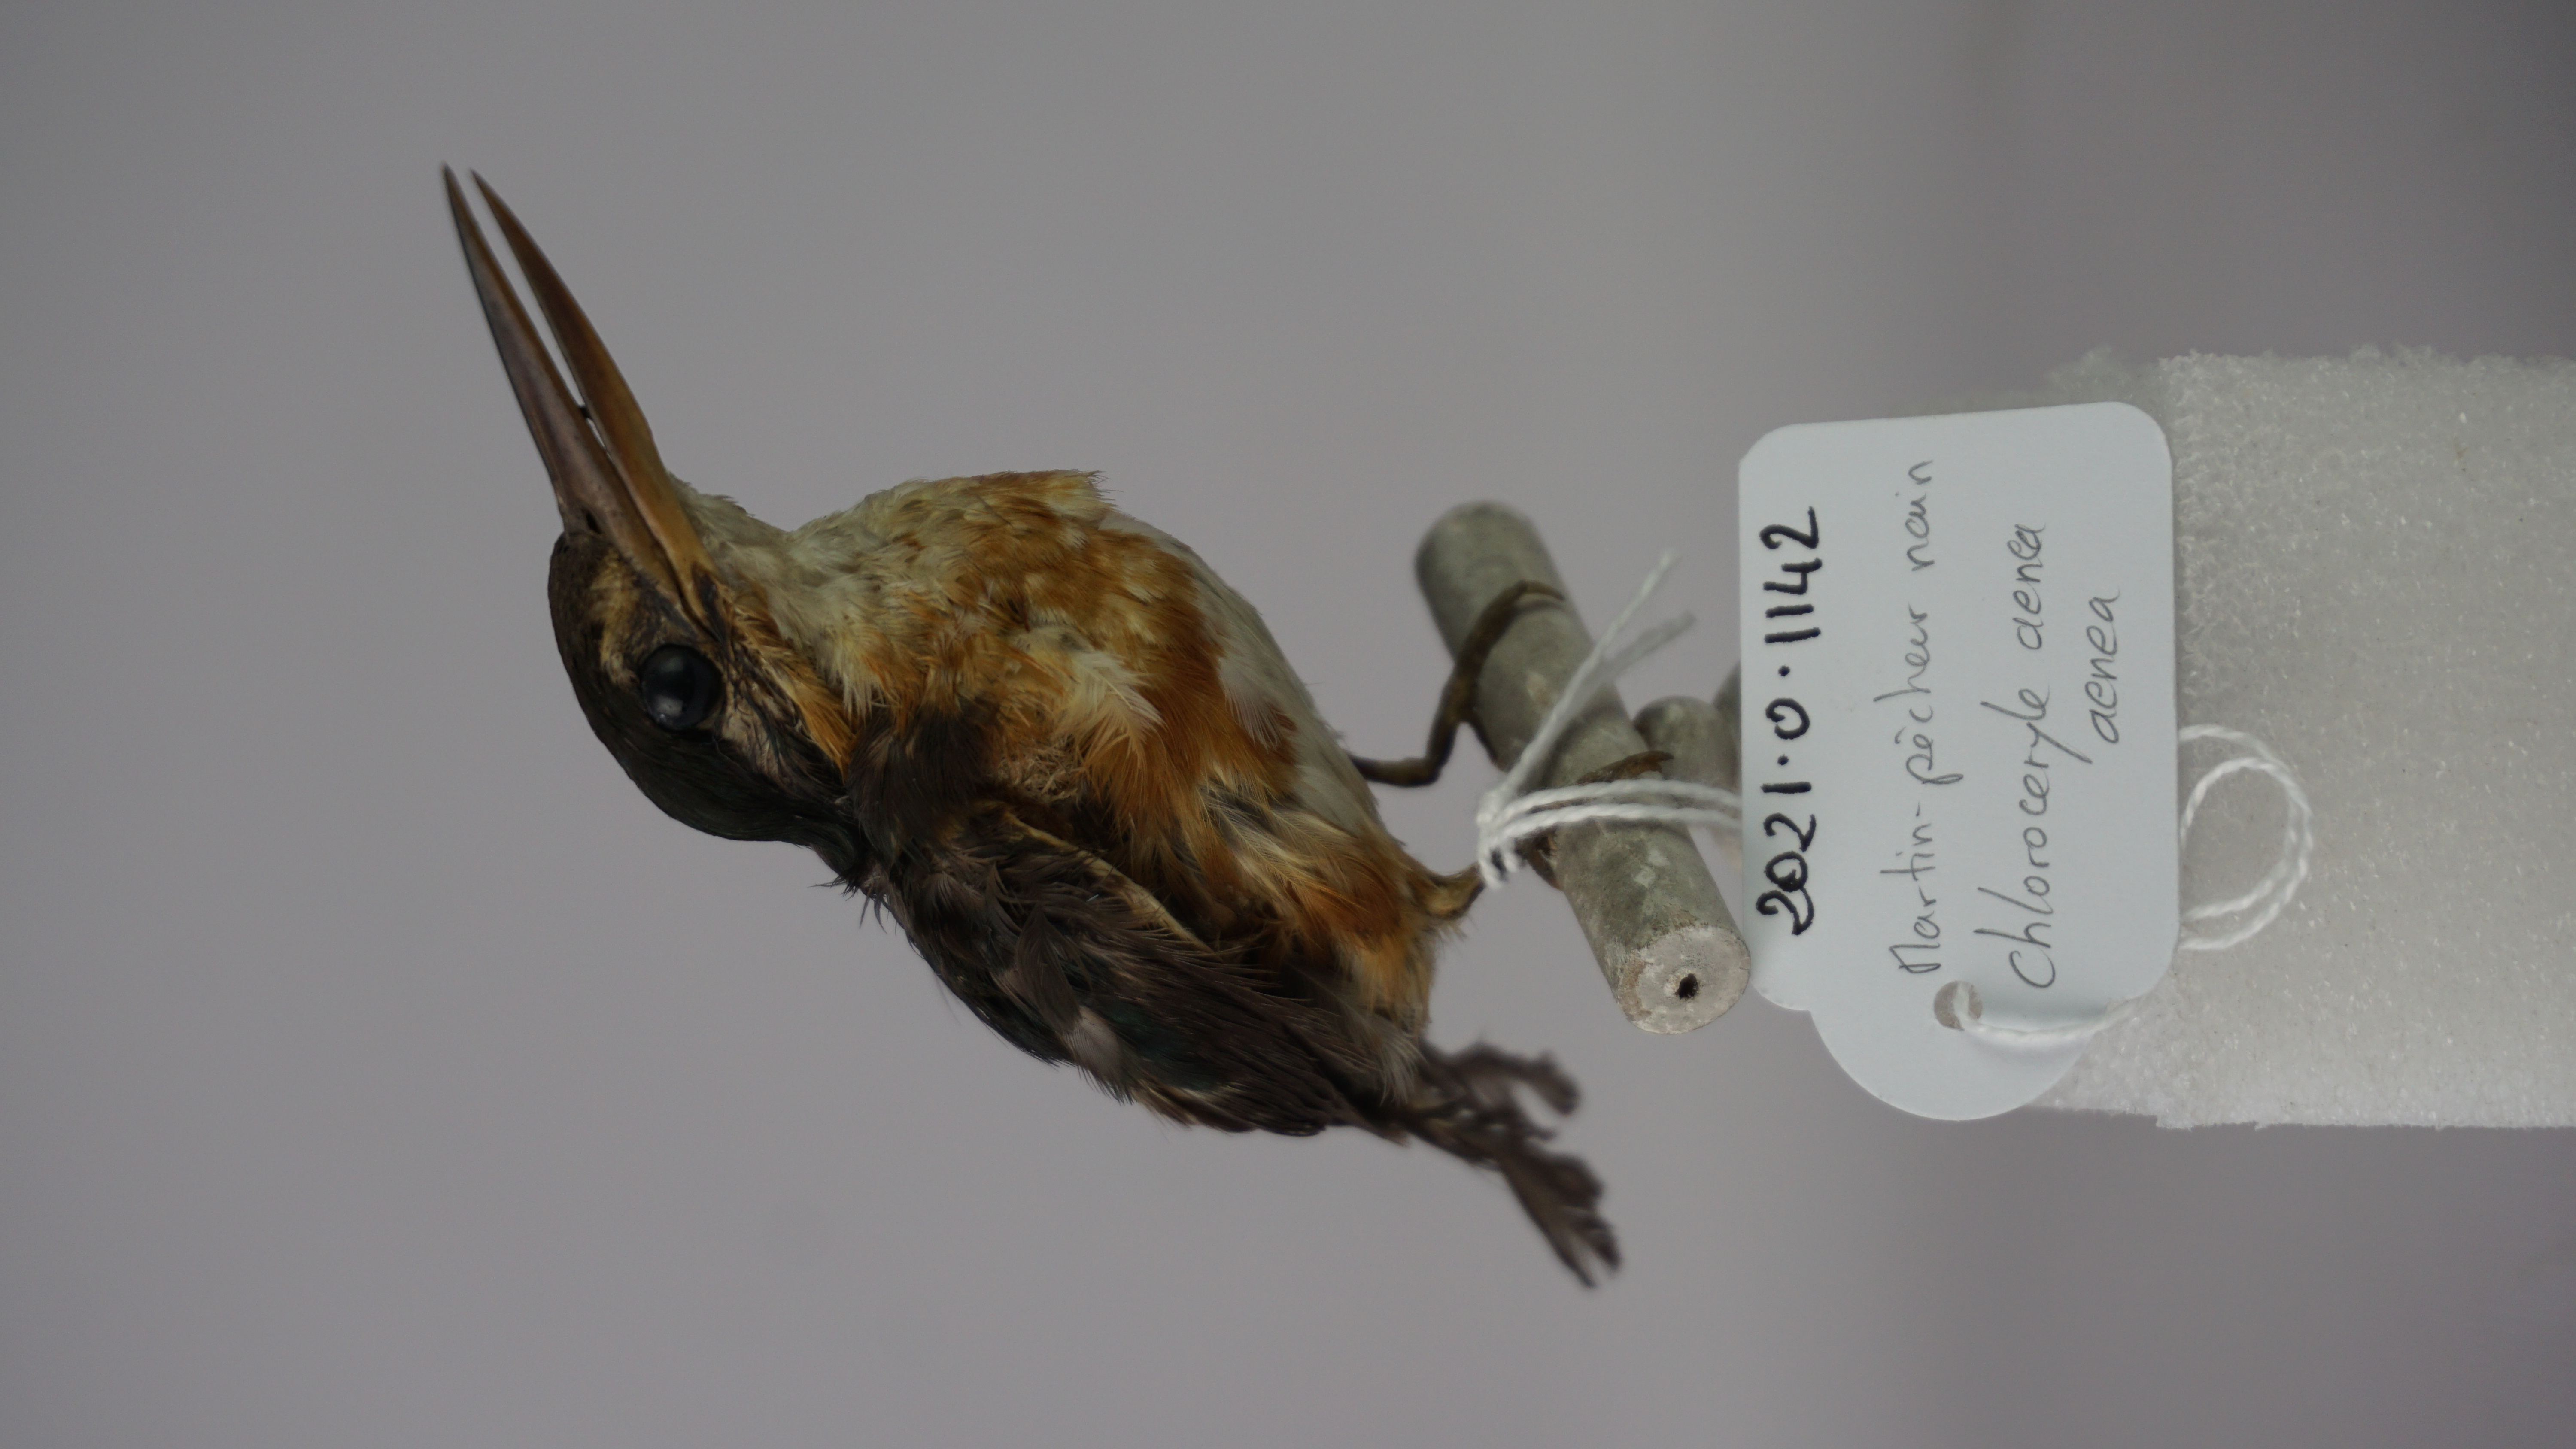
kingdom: Animalia
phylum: Chordata
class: Aves
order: Coraciiformes
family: Alcedinidae
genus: Chloroceryle
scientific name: Chloroceryle aenea
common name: American pygmy kingfisher
